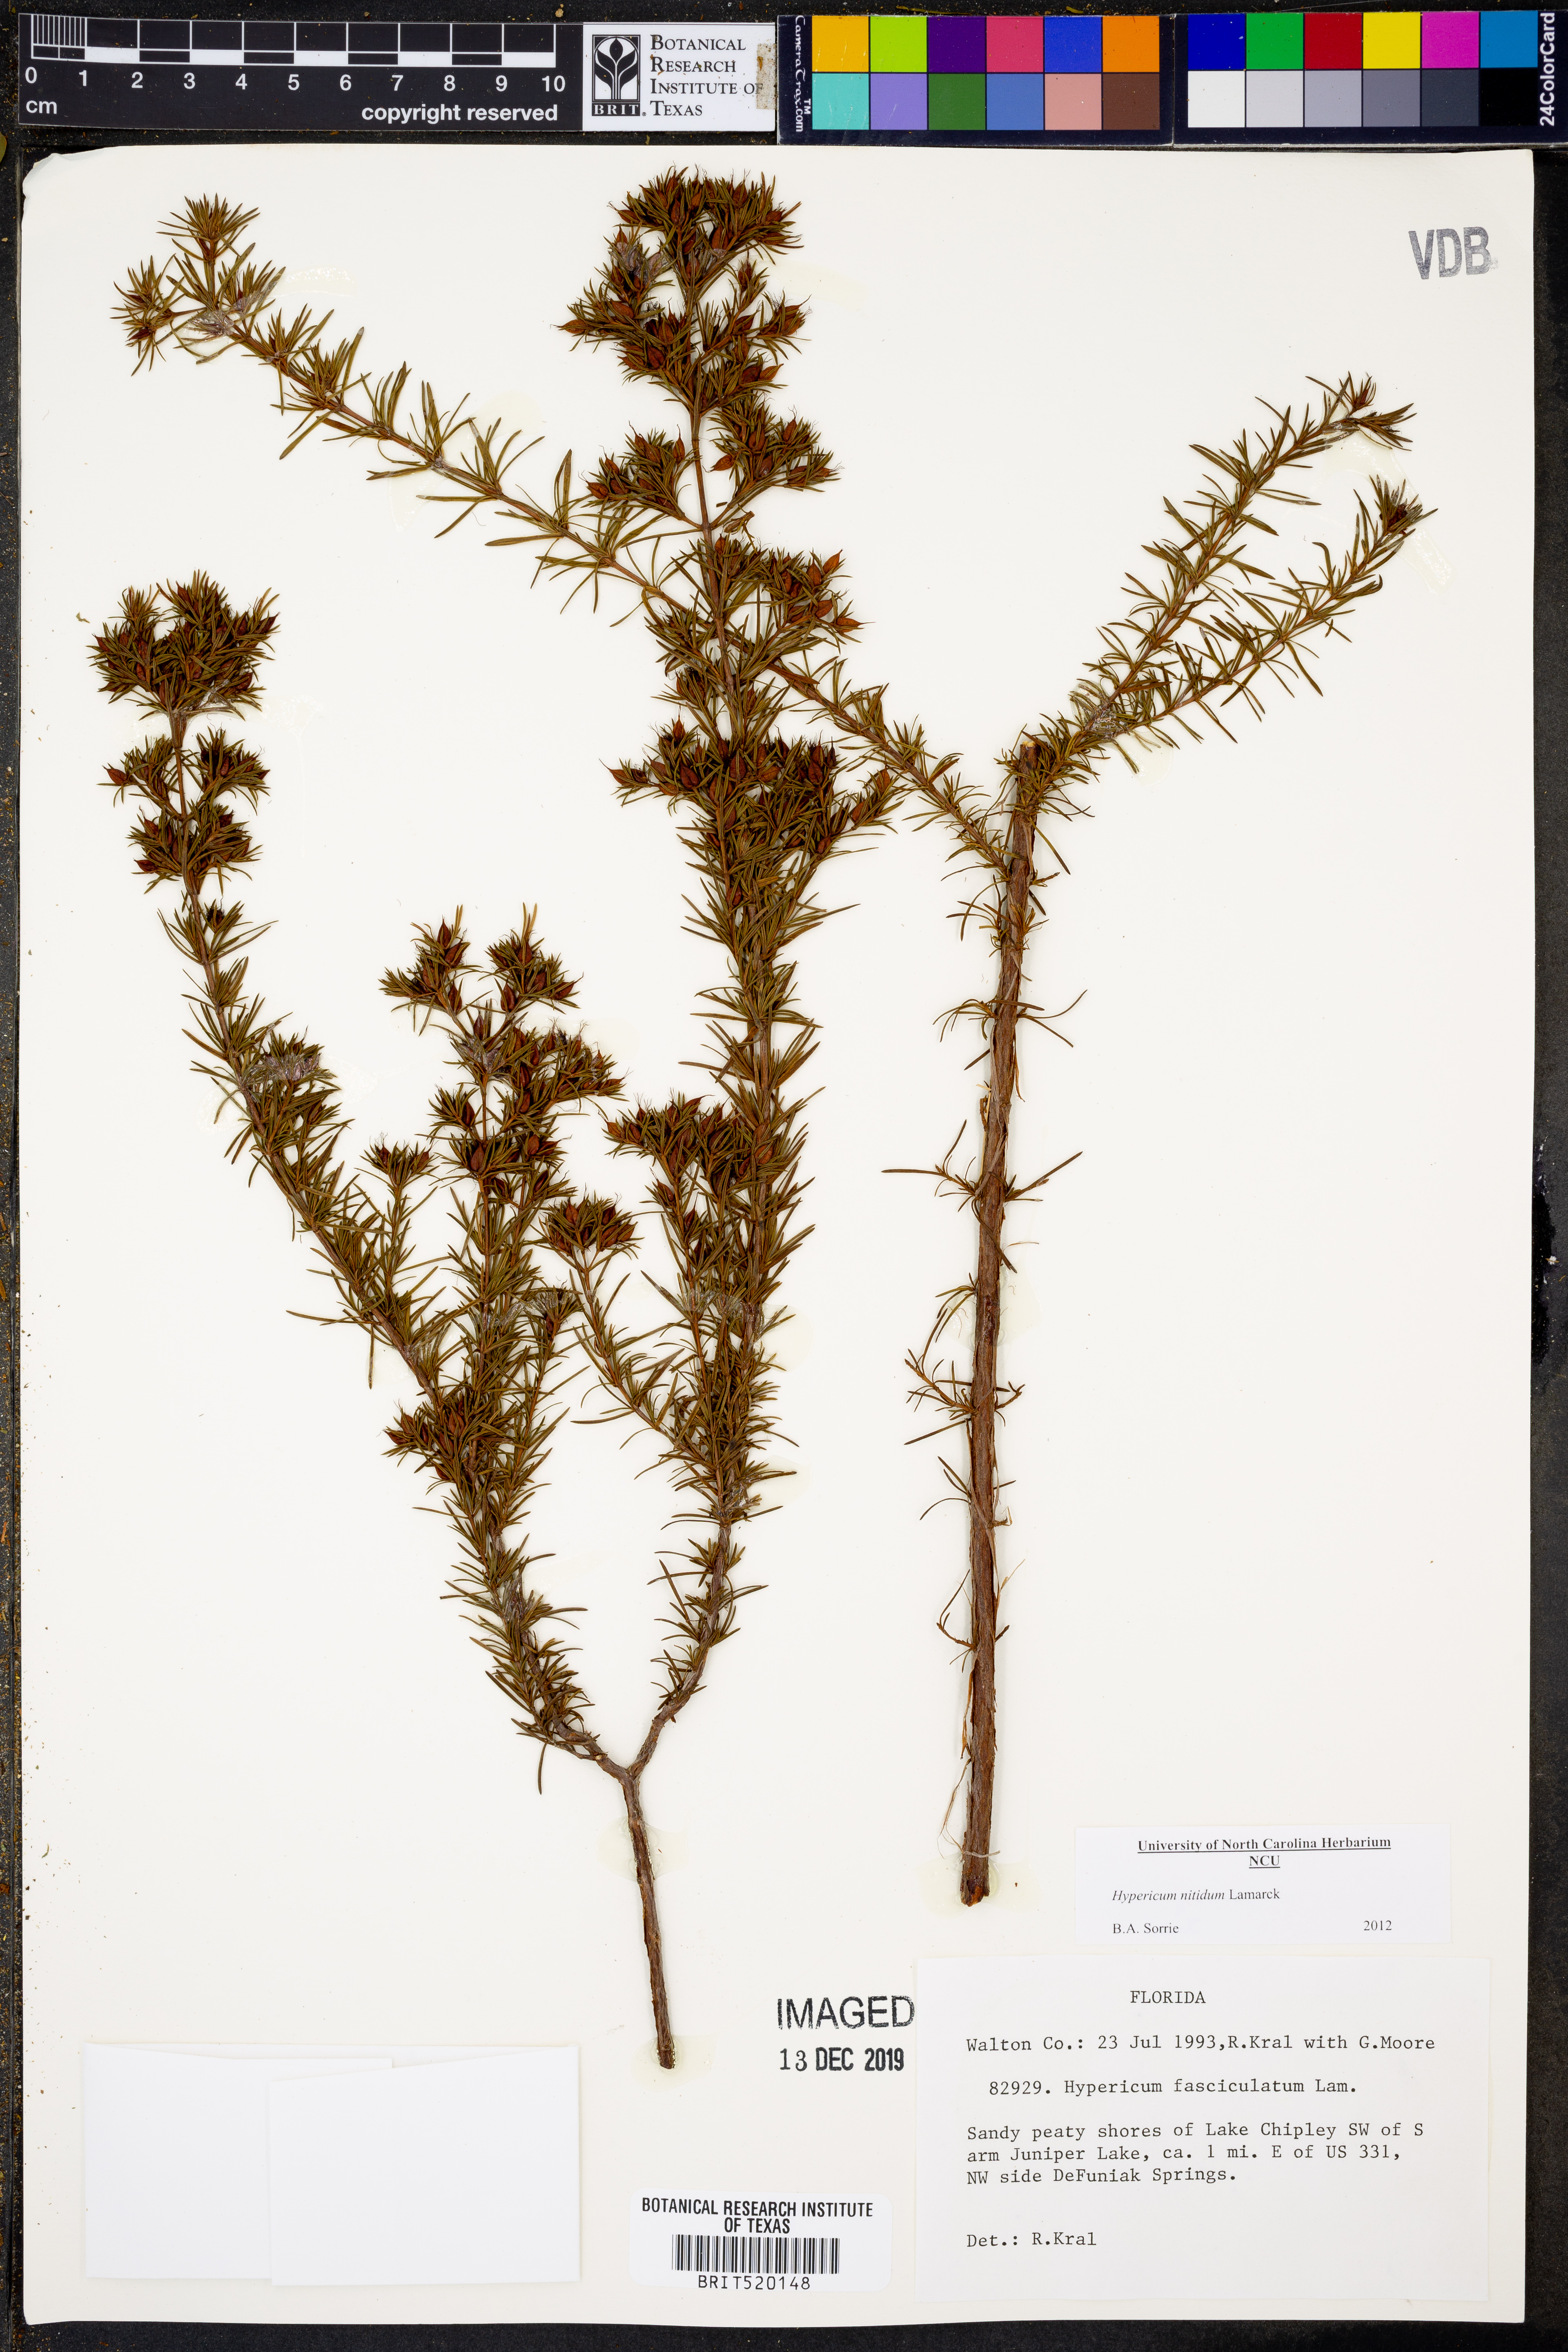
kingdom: Plantae
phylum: Tracheophyta
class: Magnoliopsida
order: Malpighiales
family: Hypericaceae
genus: Hypericum
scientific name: Hypericum nitidum
